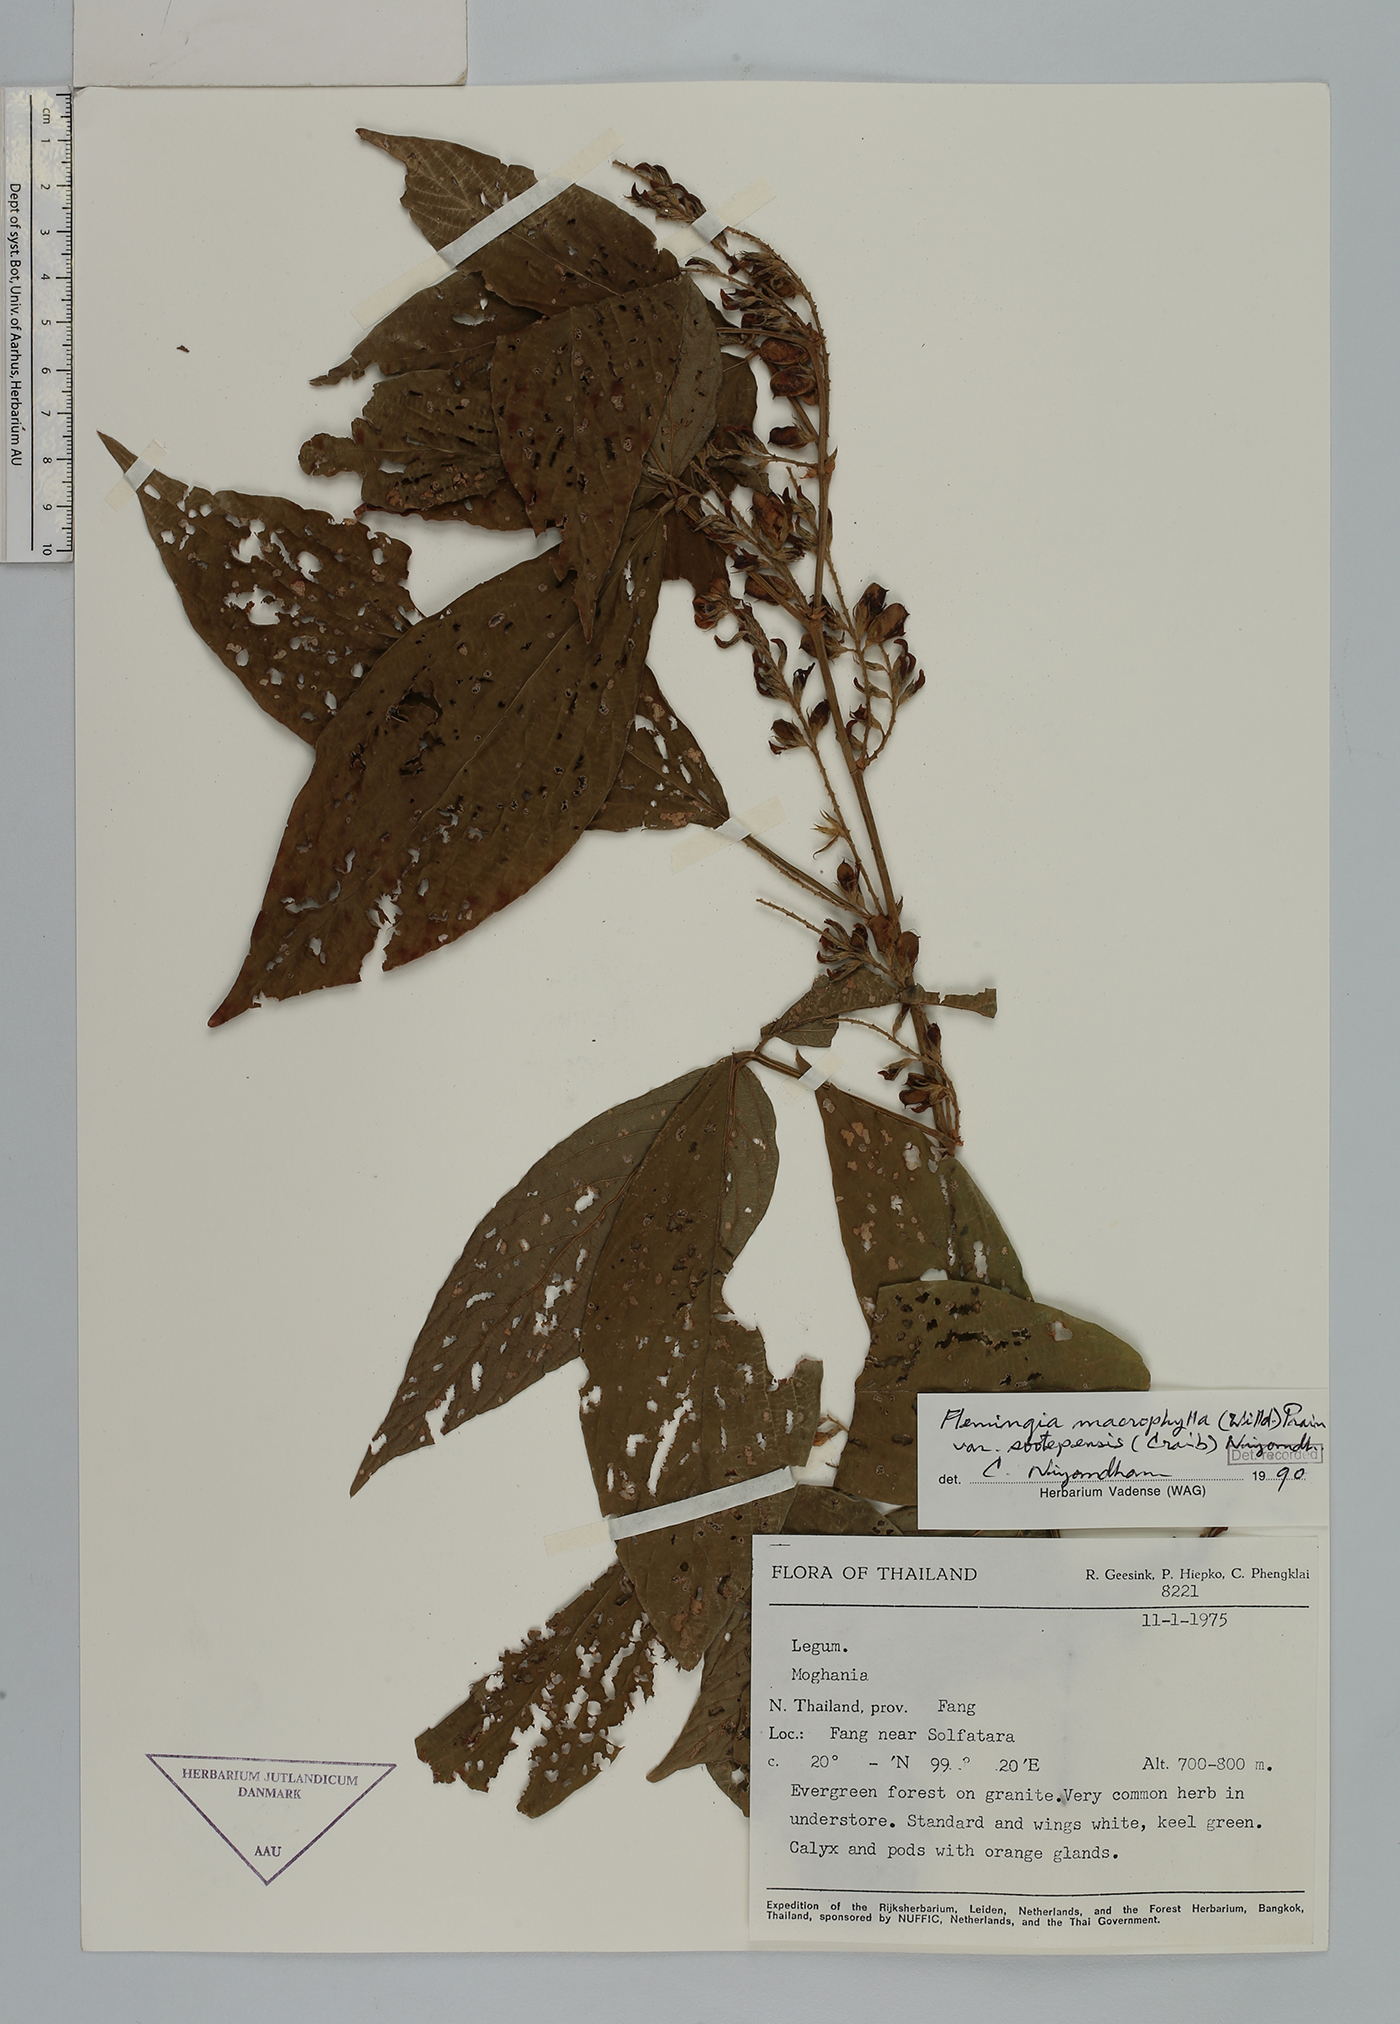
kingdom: Plantae
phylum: Tracheophyta
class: Magnoliopsida
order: Fabales
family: Fabaceae
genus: Flemingia
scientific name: Flemingia macrophylla
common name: Flemingia
